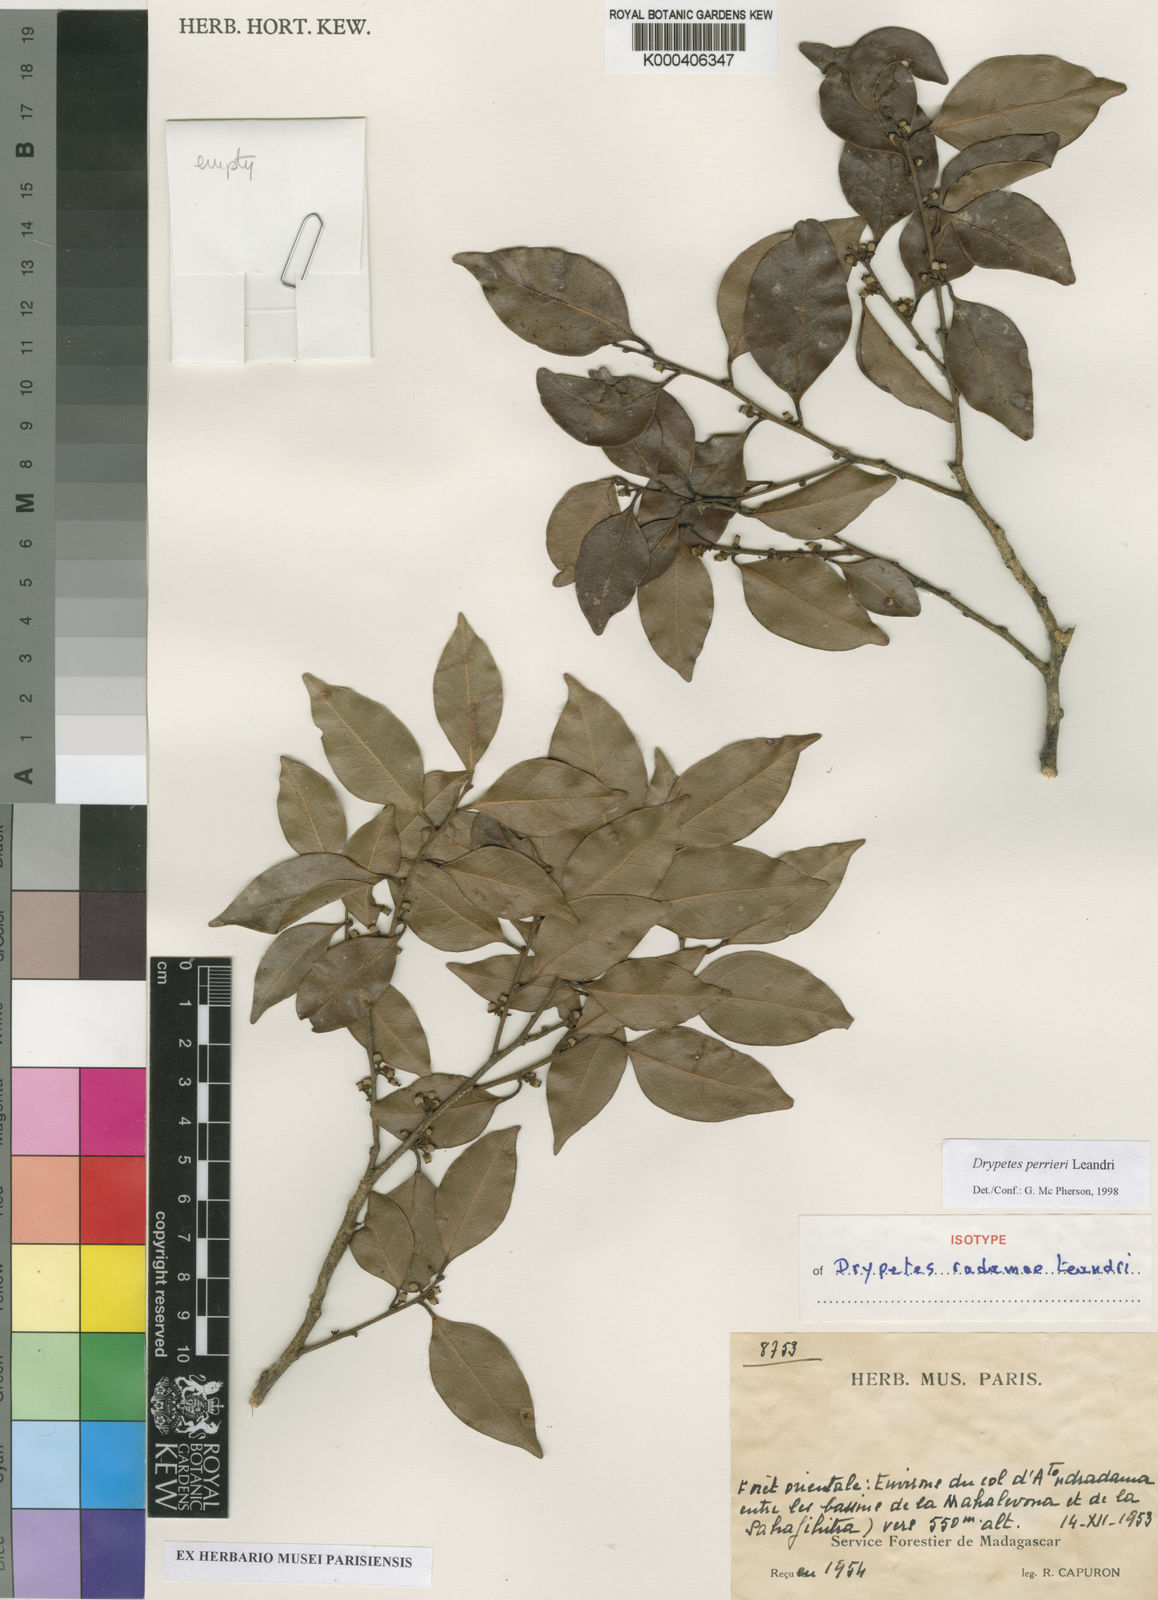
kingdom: Plantae
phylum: Tracheophyta
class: Magnoliopsida
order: Malpighiales
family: Putranjivaceae
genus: Drypetes
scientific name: Drypetes
